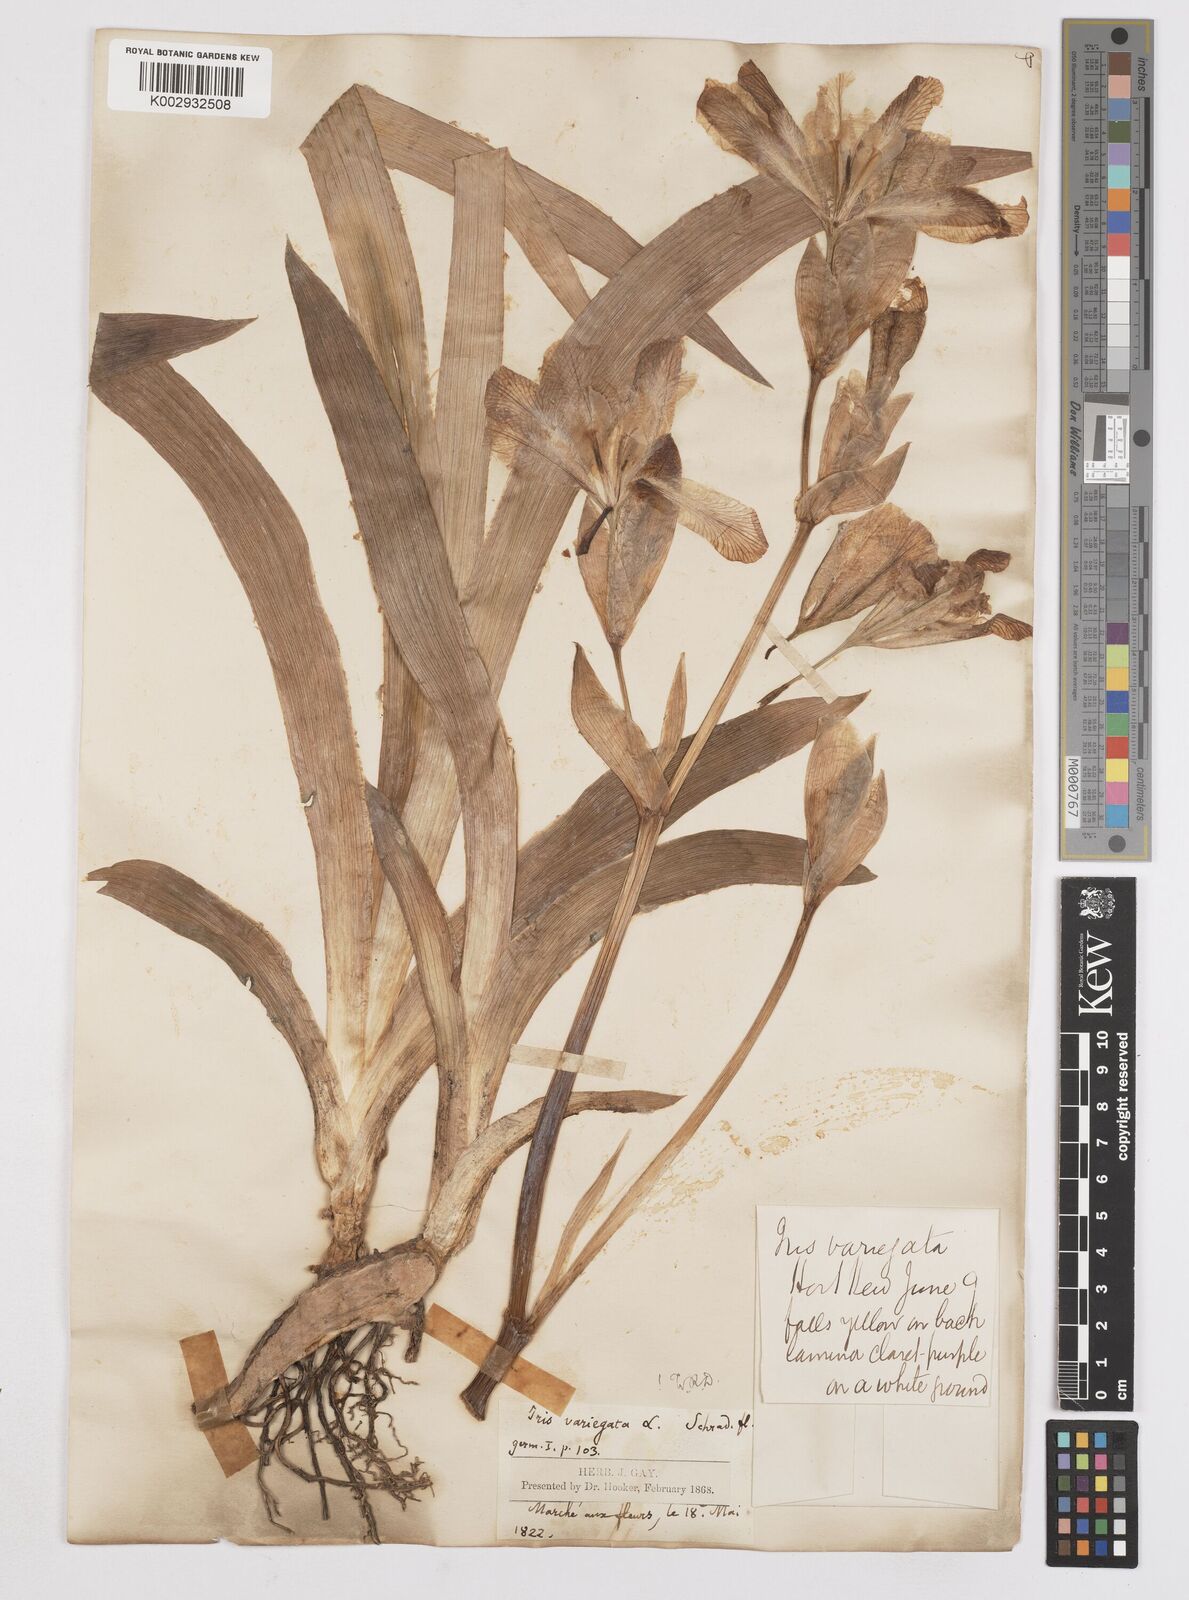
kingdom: Plantae
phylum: Tracheophyta
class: Liliopsida
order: Asparagales
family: Iridaceae
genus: Iris
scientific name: Iris variegata
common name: Hungarian iris
